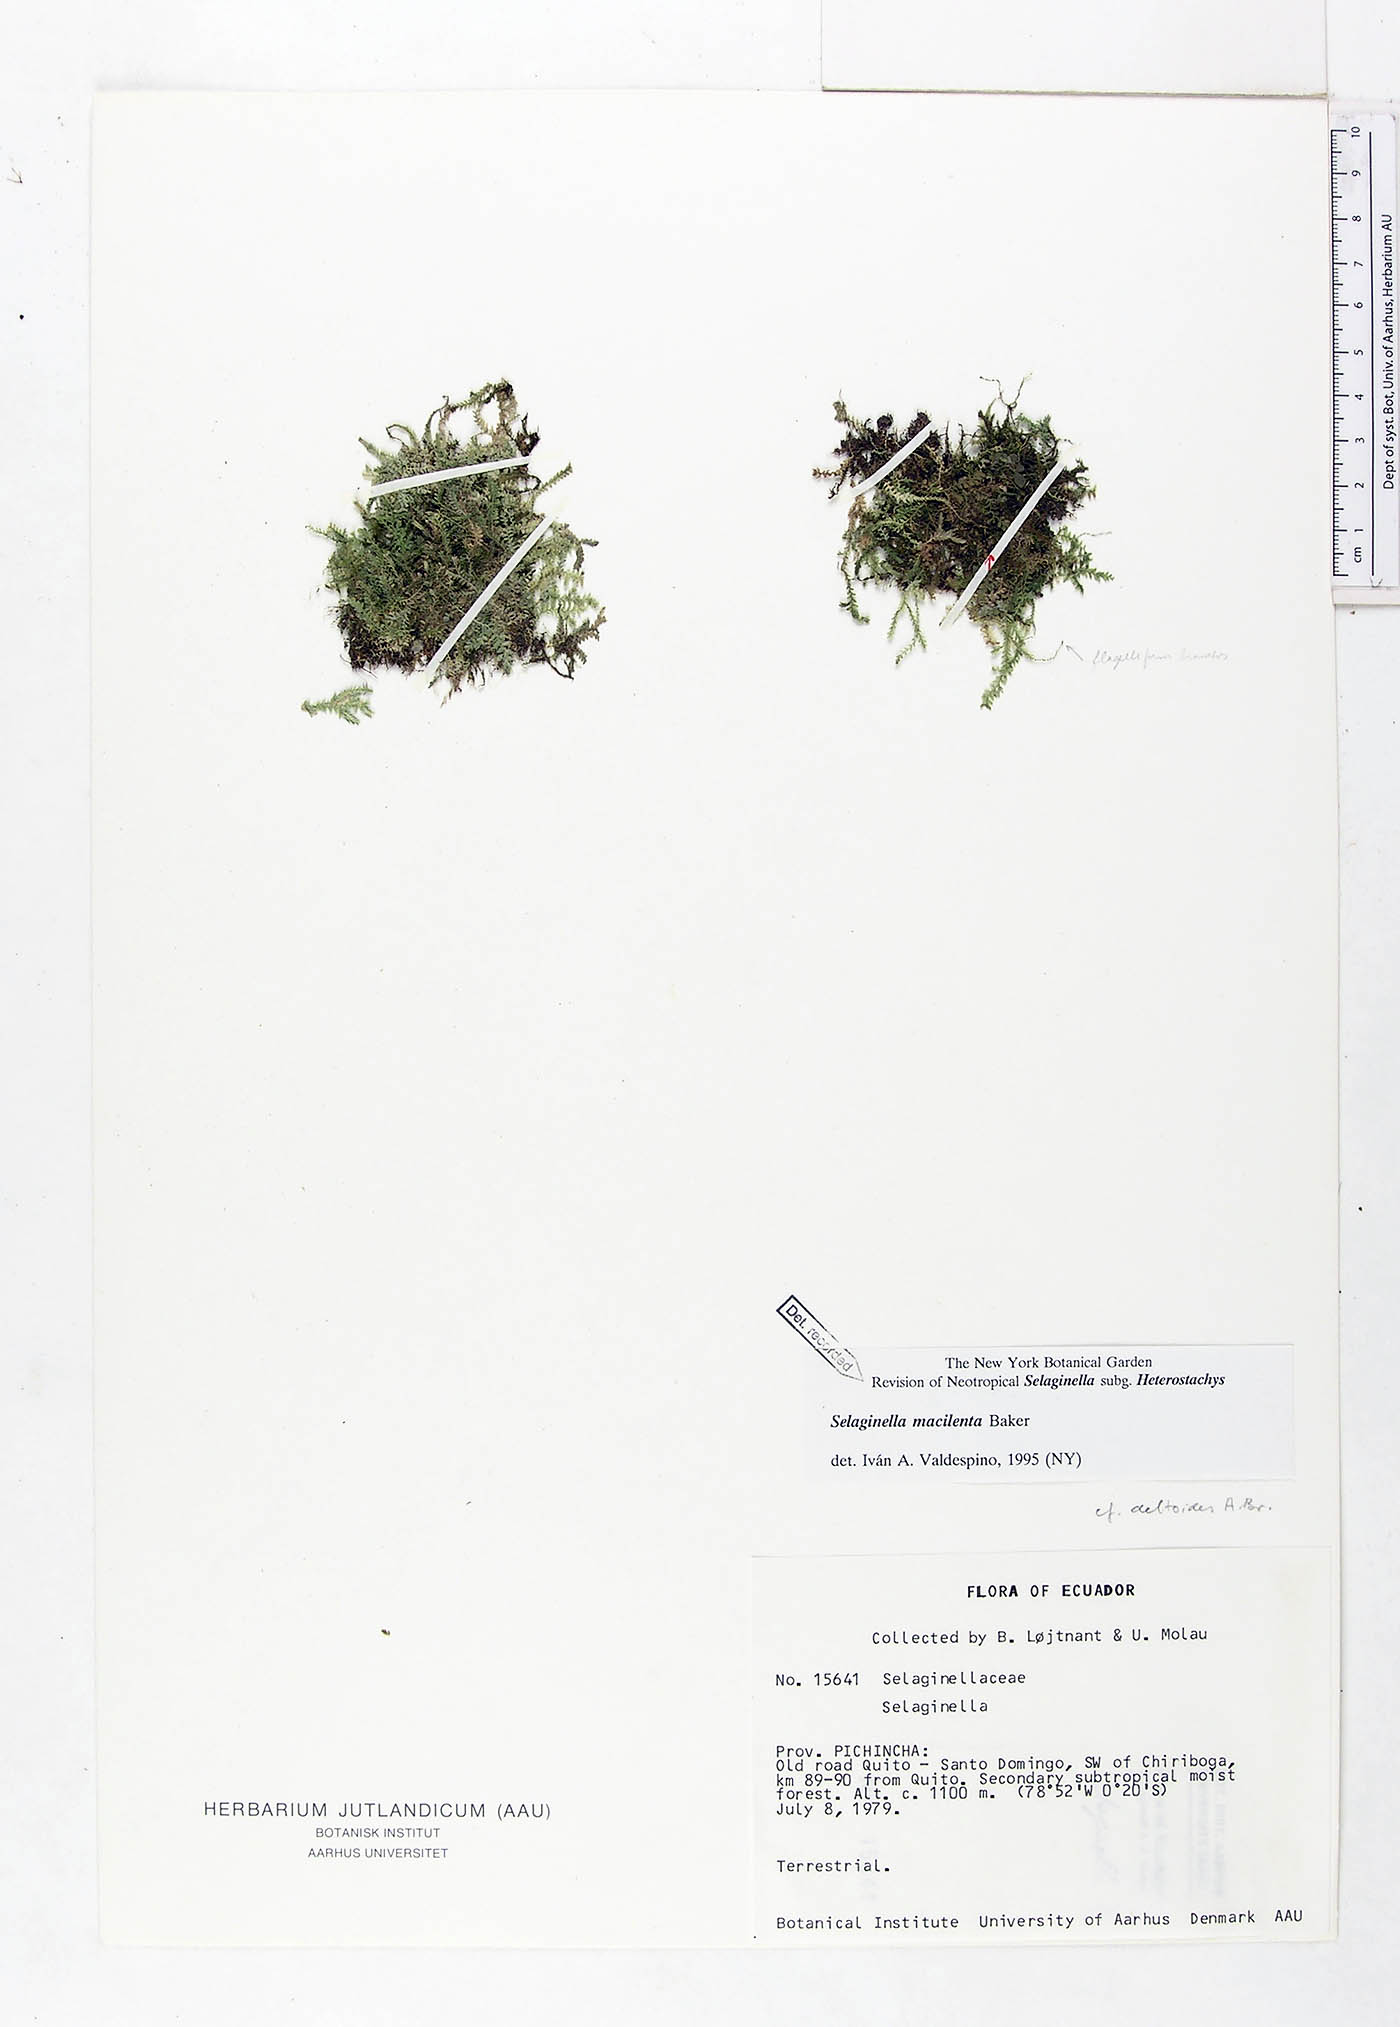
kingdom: Plantae
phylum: Tracheophyta
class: Lycopodiopsida
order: Selaginellales
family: Selaginellaceae
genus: Selaginella
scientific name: Selaginella macilenta
